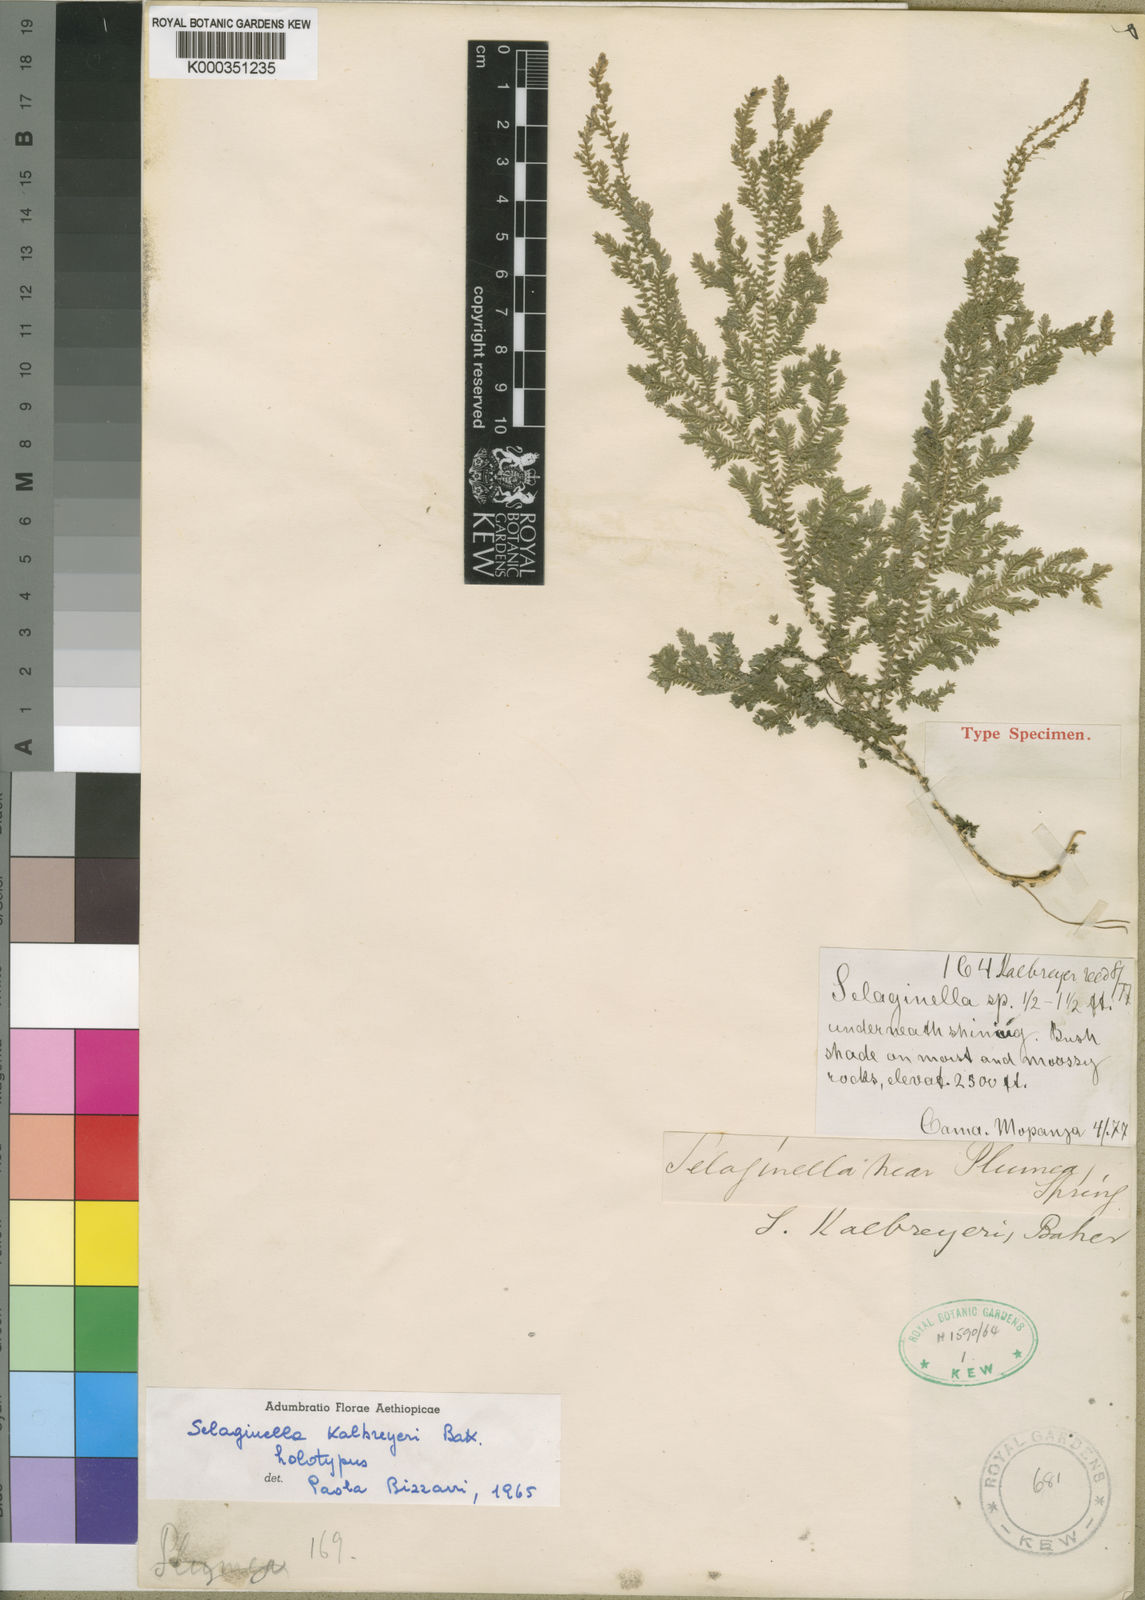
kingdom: Plantae
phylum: Tracheophyta
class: Lycopodiopsida
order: Selaginellales
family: Selaginellaceae
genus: Selaginella
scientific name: Selaginella kalbreyeri
